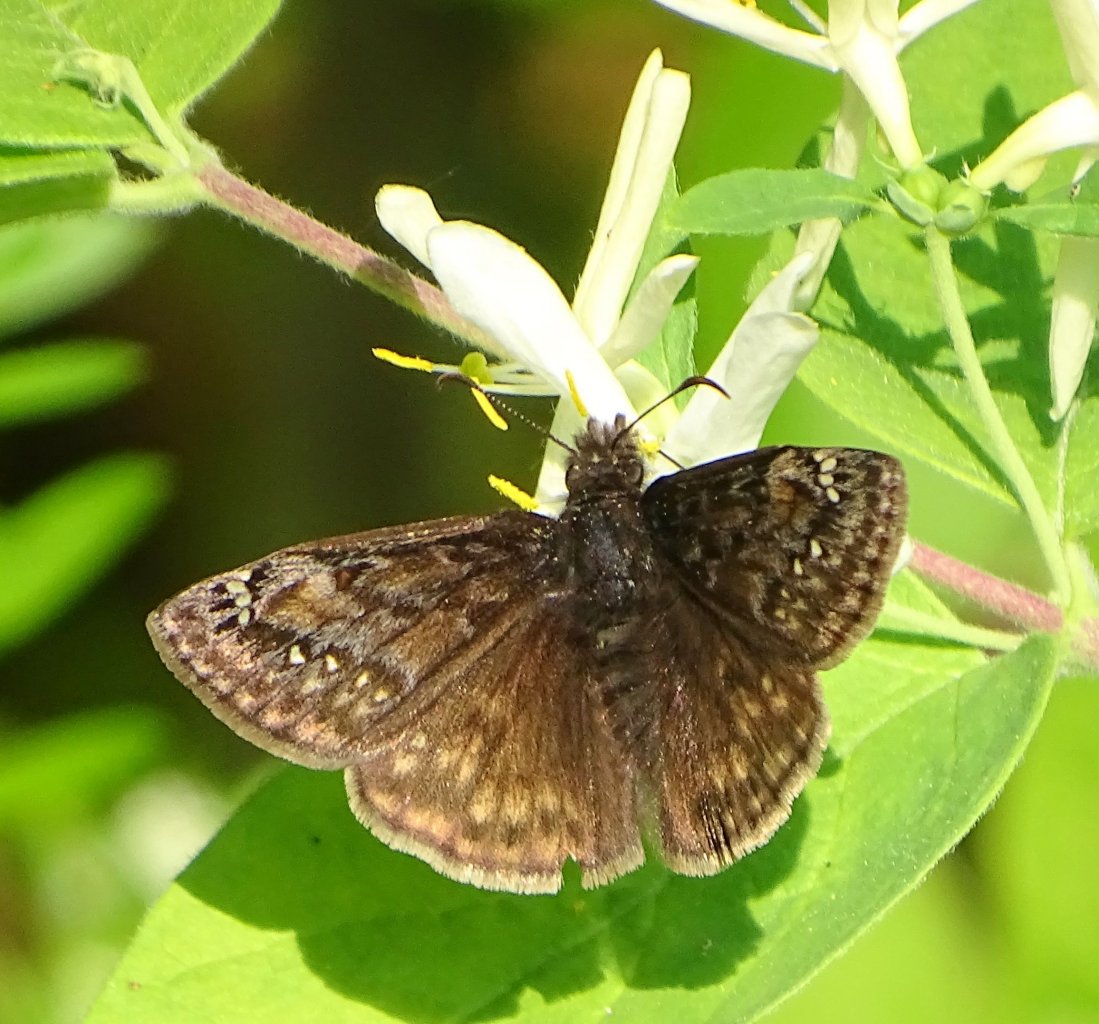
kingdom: Animalia
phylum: Arthropoda
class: Insecta
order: Lepidoptera
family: Hesperiidae
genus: Gesta
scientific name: Gesta
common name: Juvenal's Duskywing
